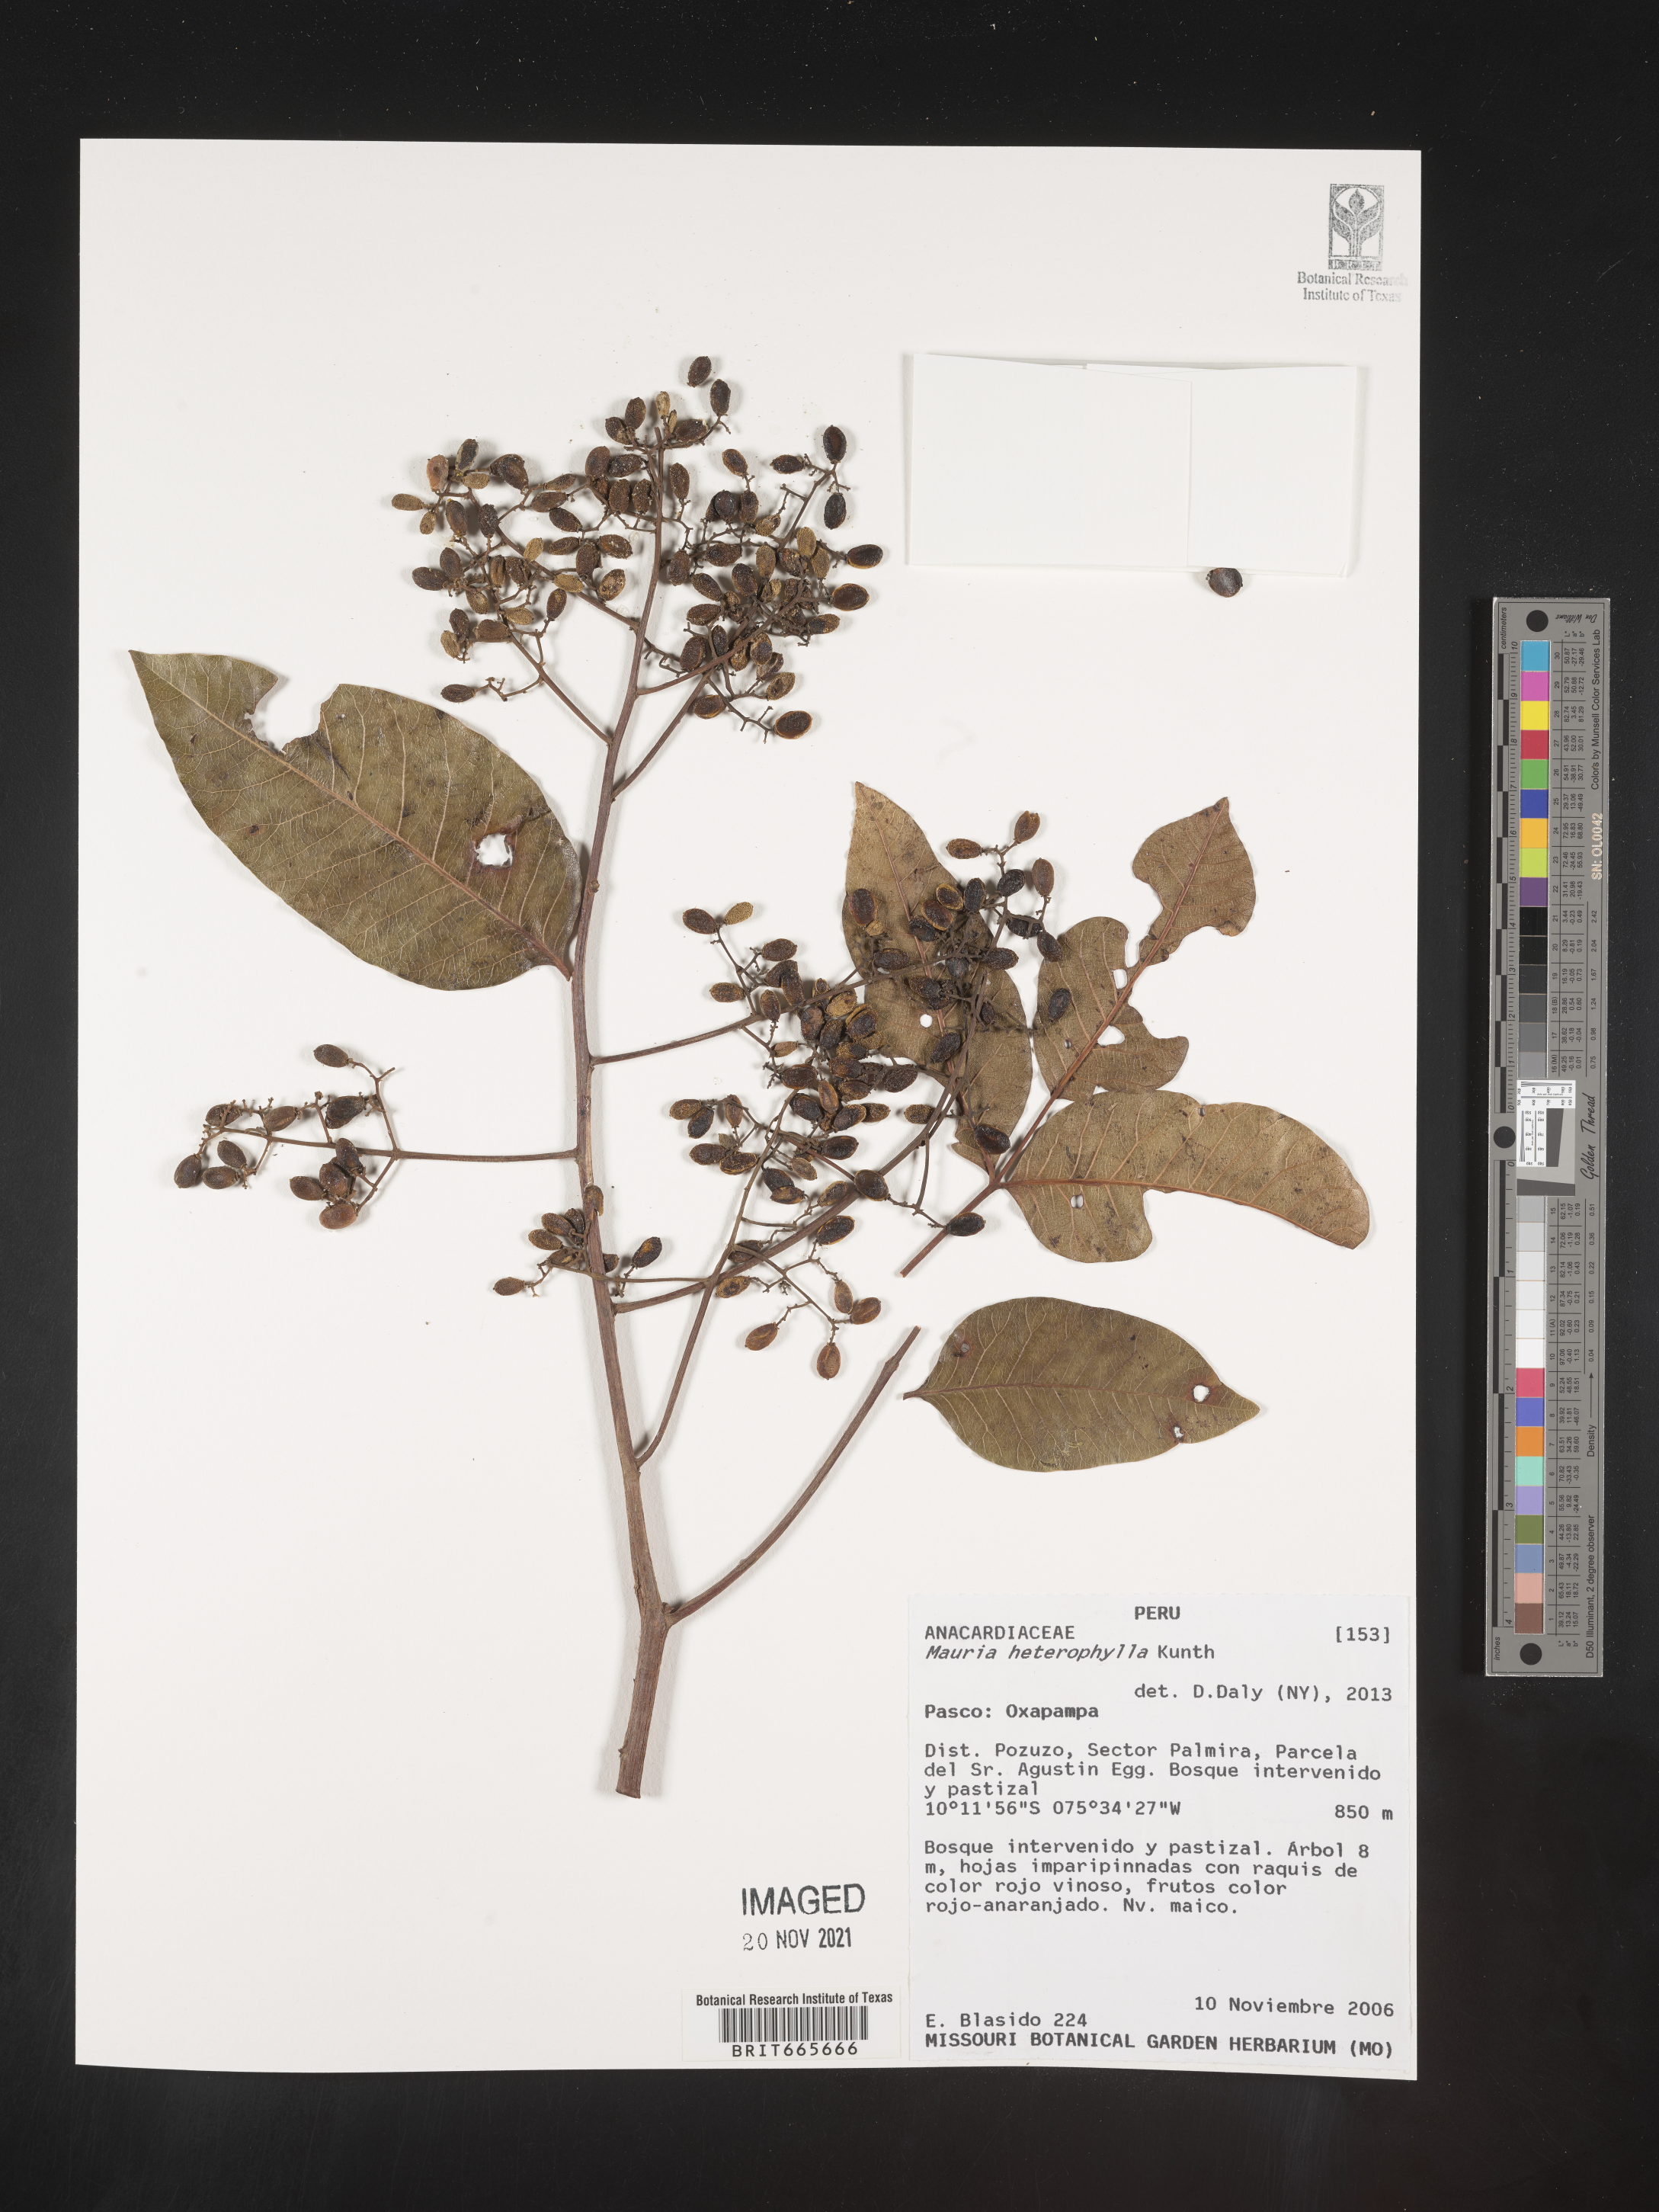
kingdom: Plantae
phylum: Tracheophyta
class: Magnoliopsida
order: Sapindales
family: Anacardiaceae
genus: Mauria
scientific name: Mauria
